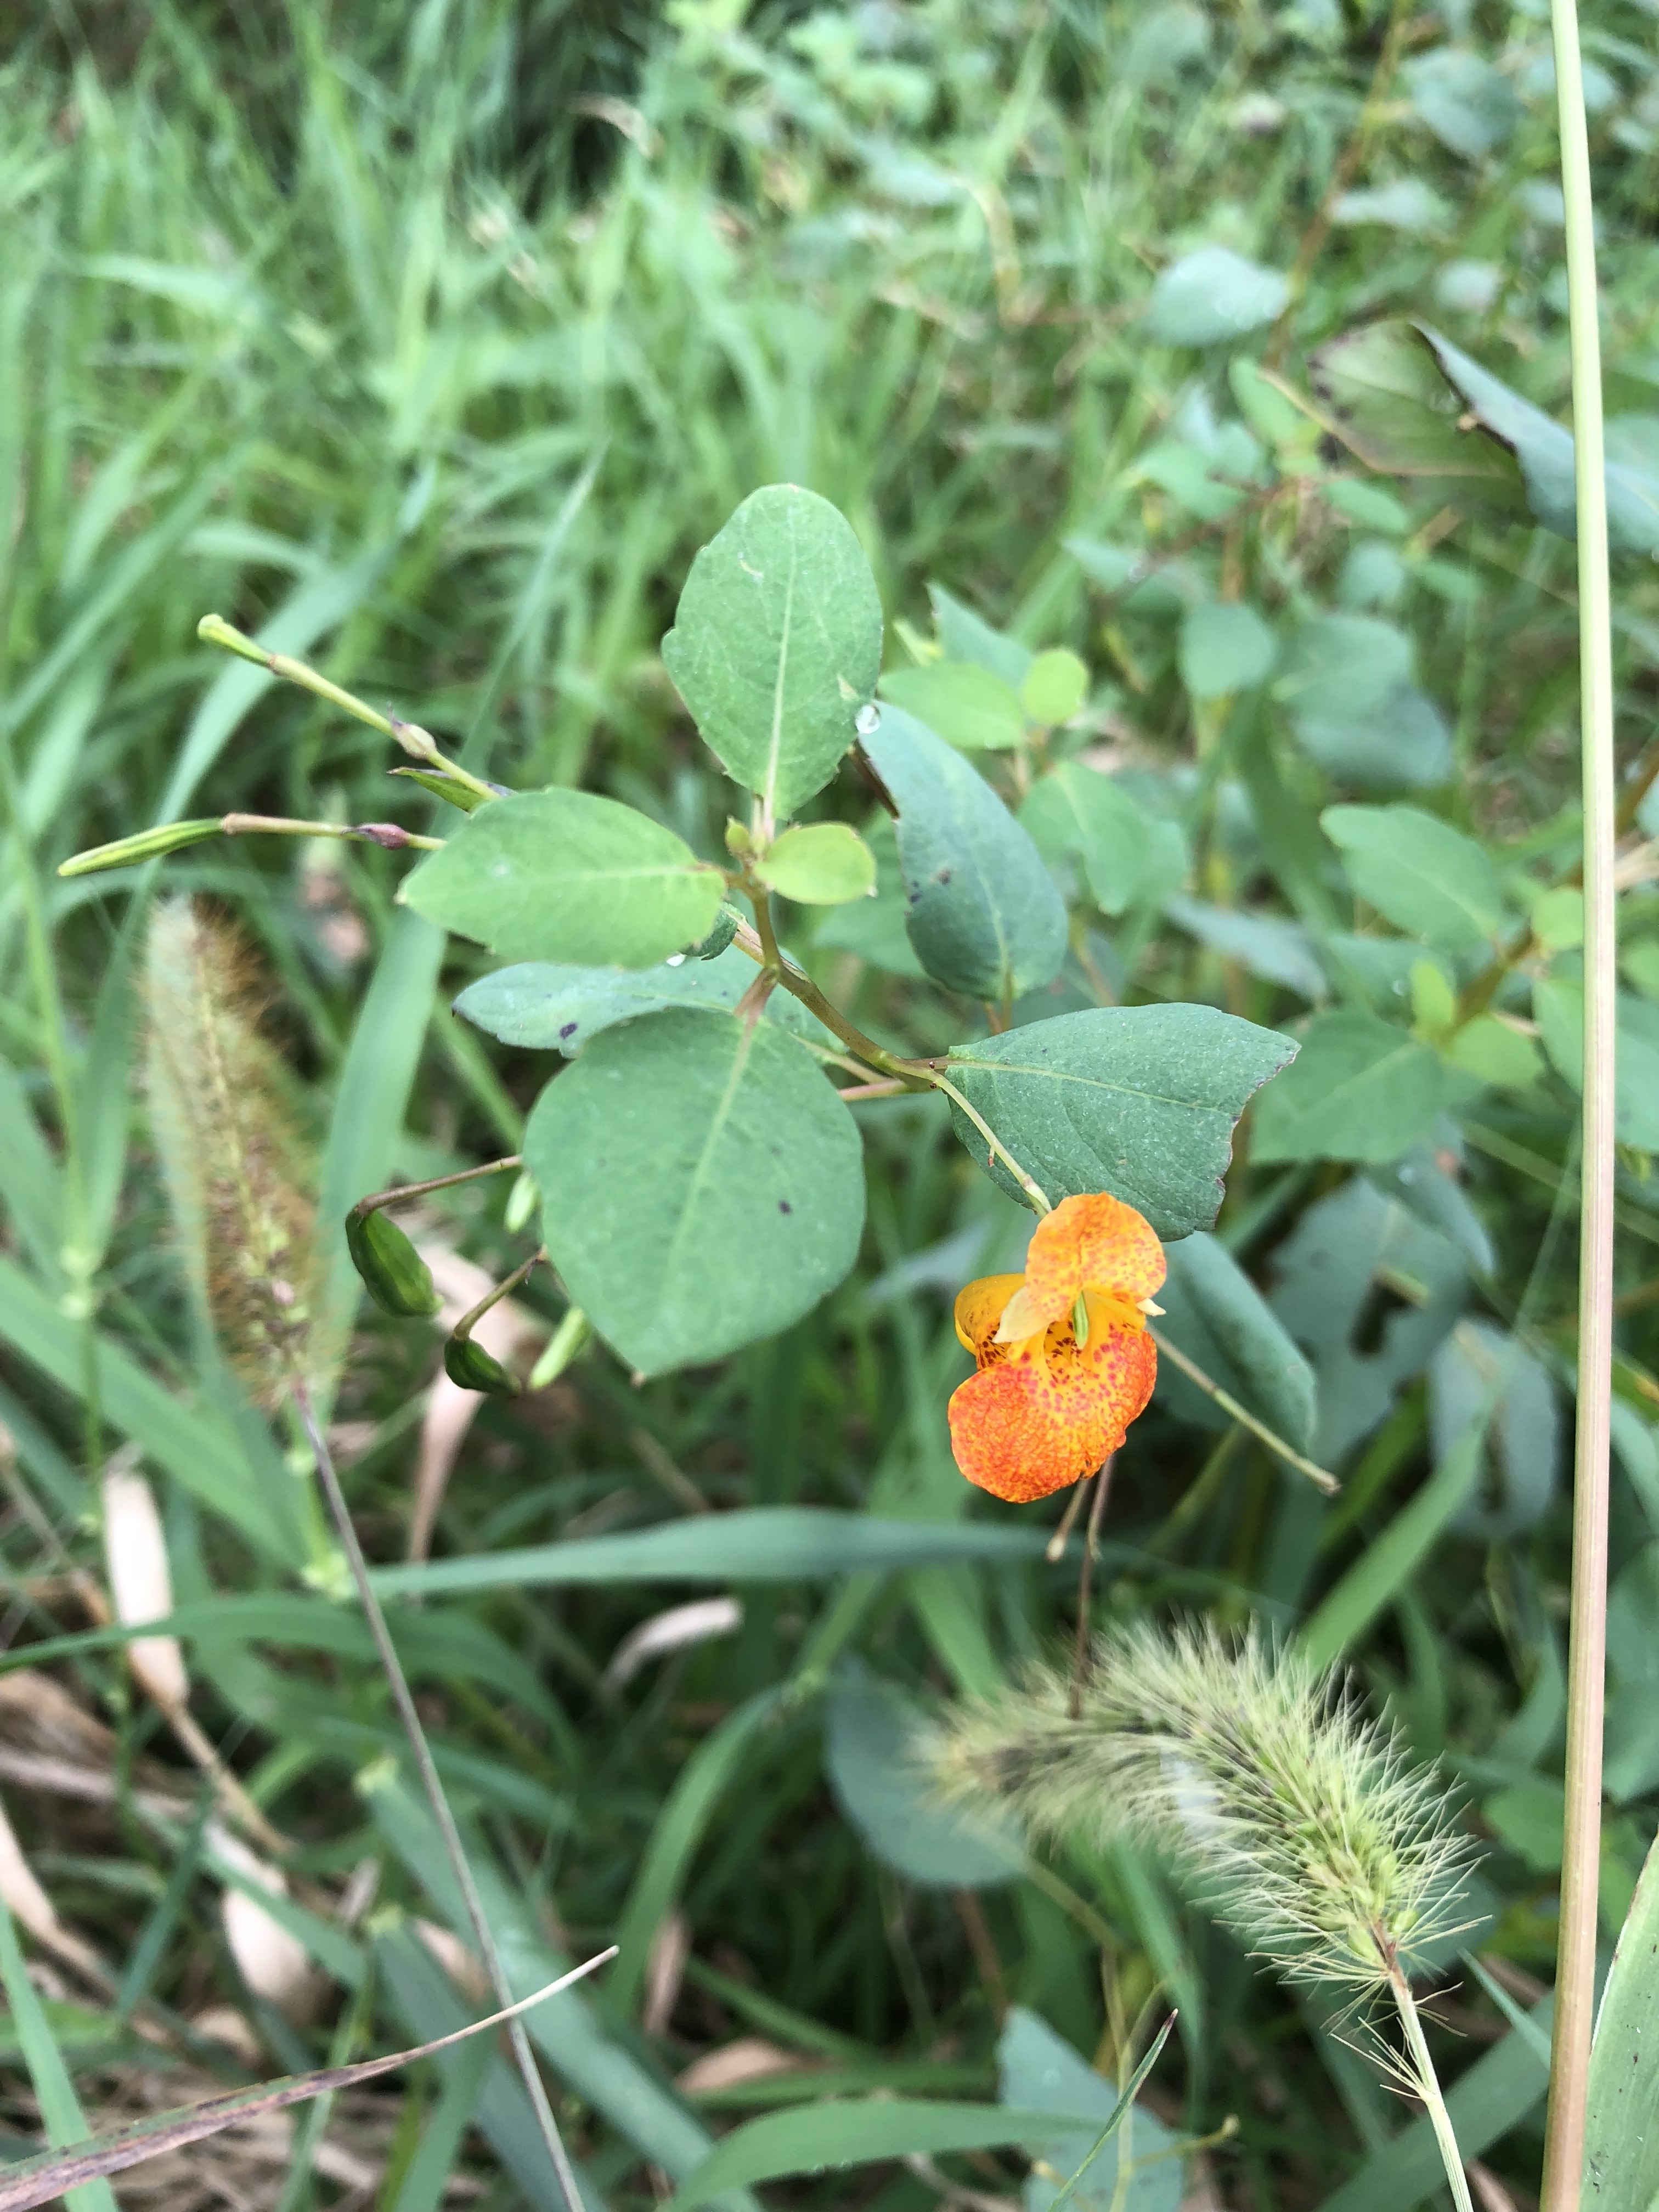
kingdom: Plantae
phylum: Tracheophyta
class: Magnoliopsida
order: Ericales
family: Balsaminaceae
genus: Impatiens
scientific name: Impatiens capensis
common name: Jewelweed
